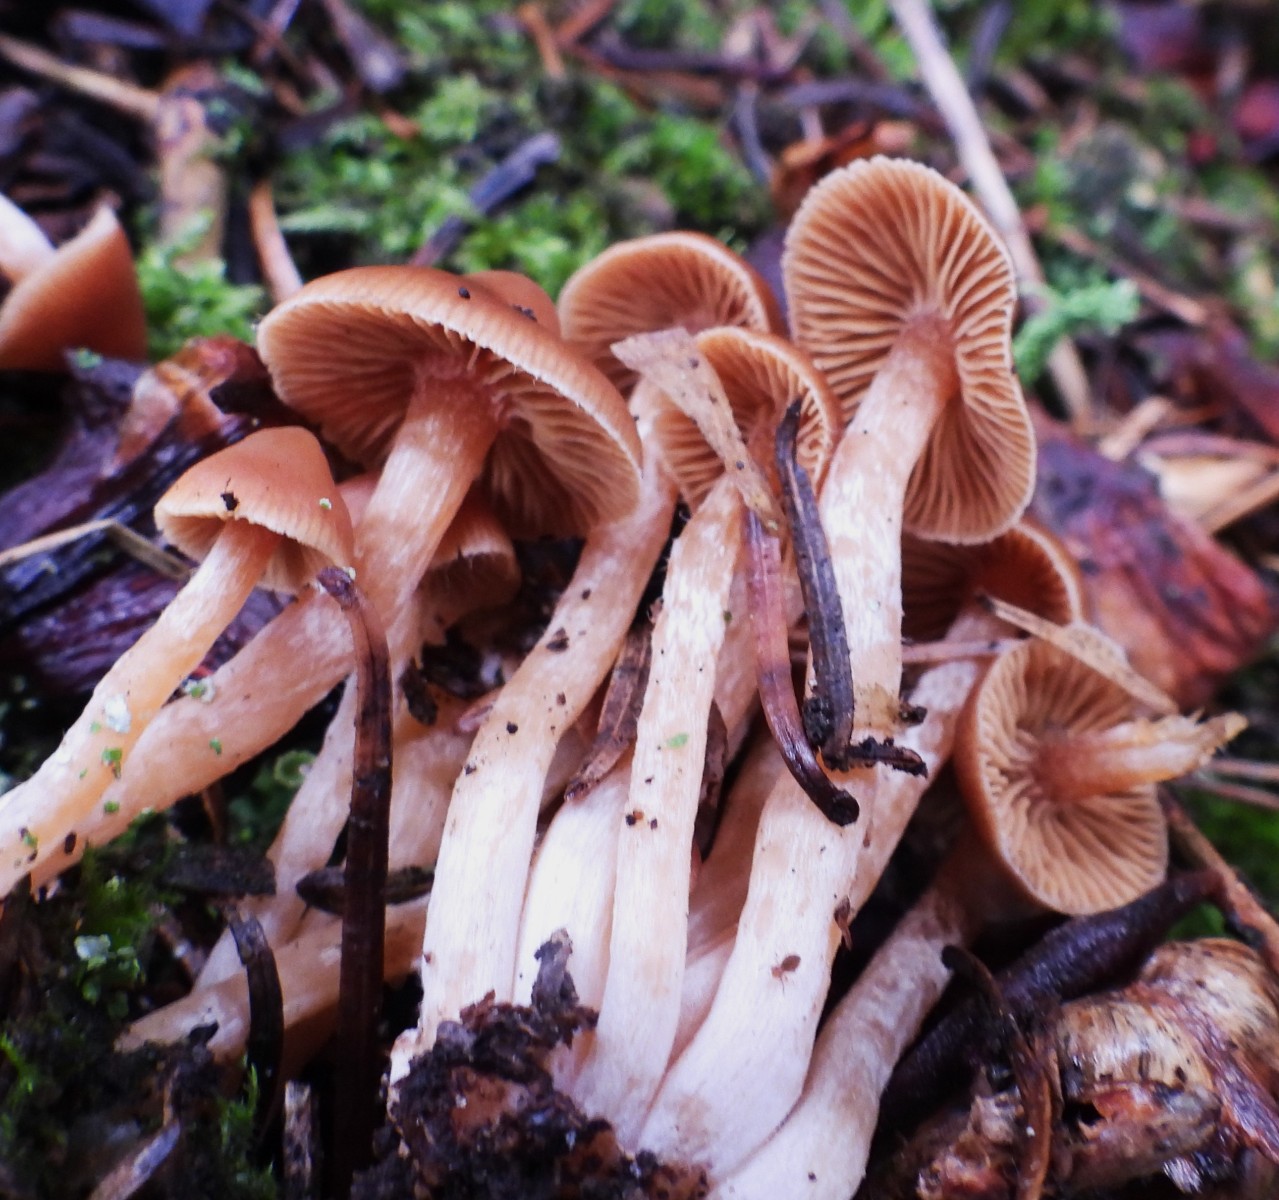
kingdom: Fungi
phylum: Basidiomycota
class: Agaricomycetes
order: Agaricales
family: Cortinariaceae
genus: Cortinarius
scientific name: Cortinarius
